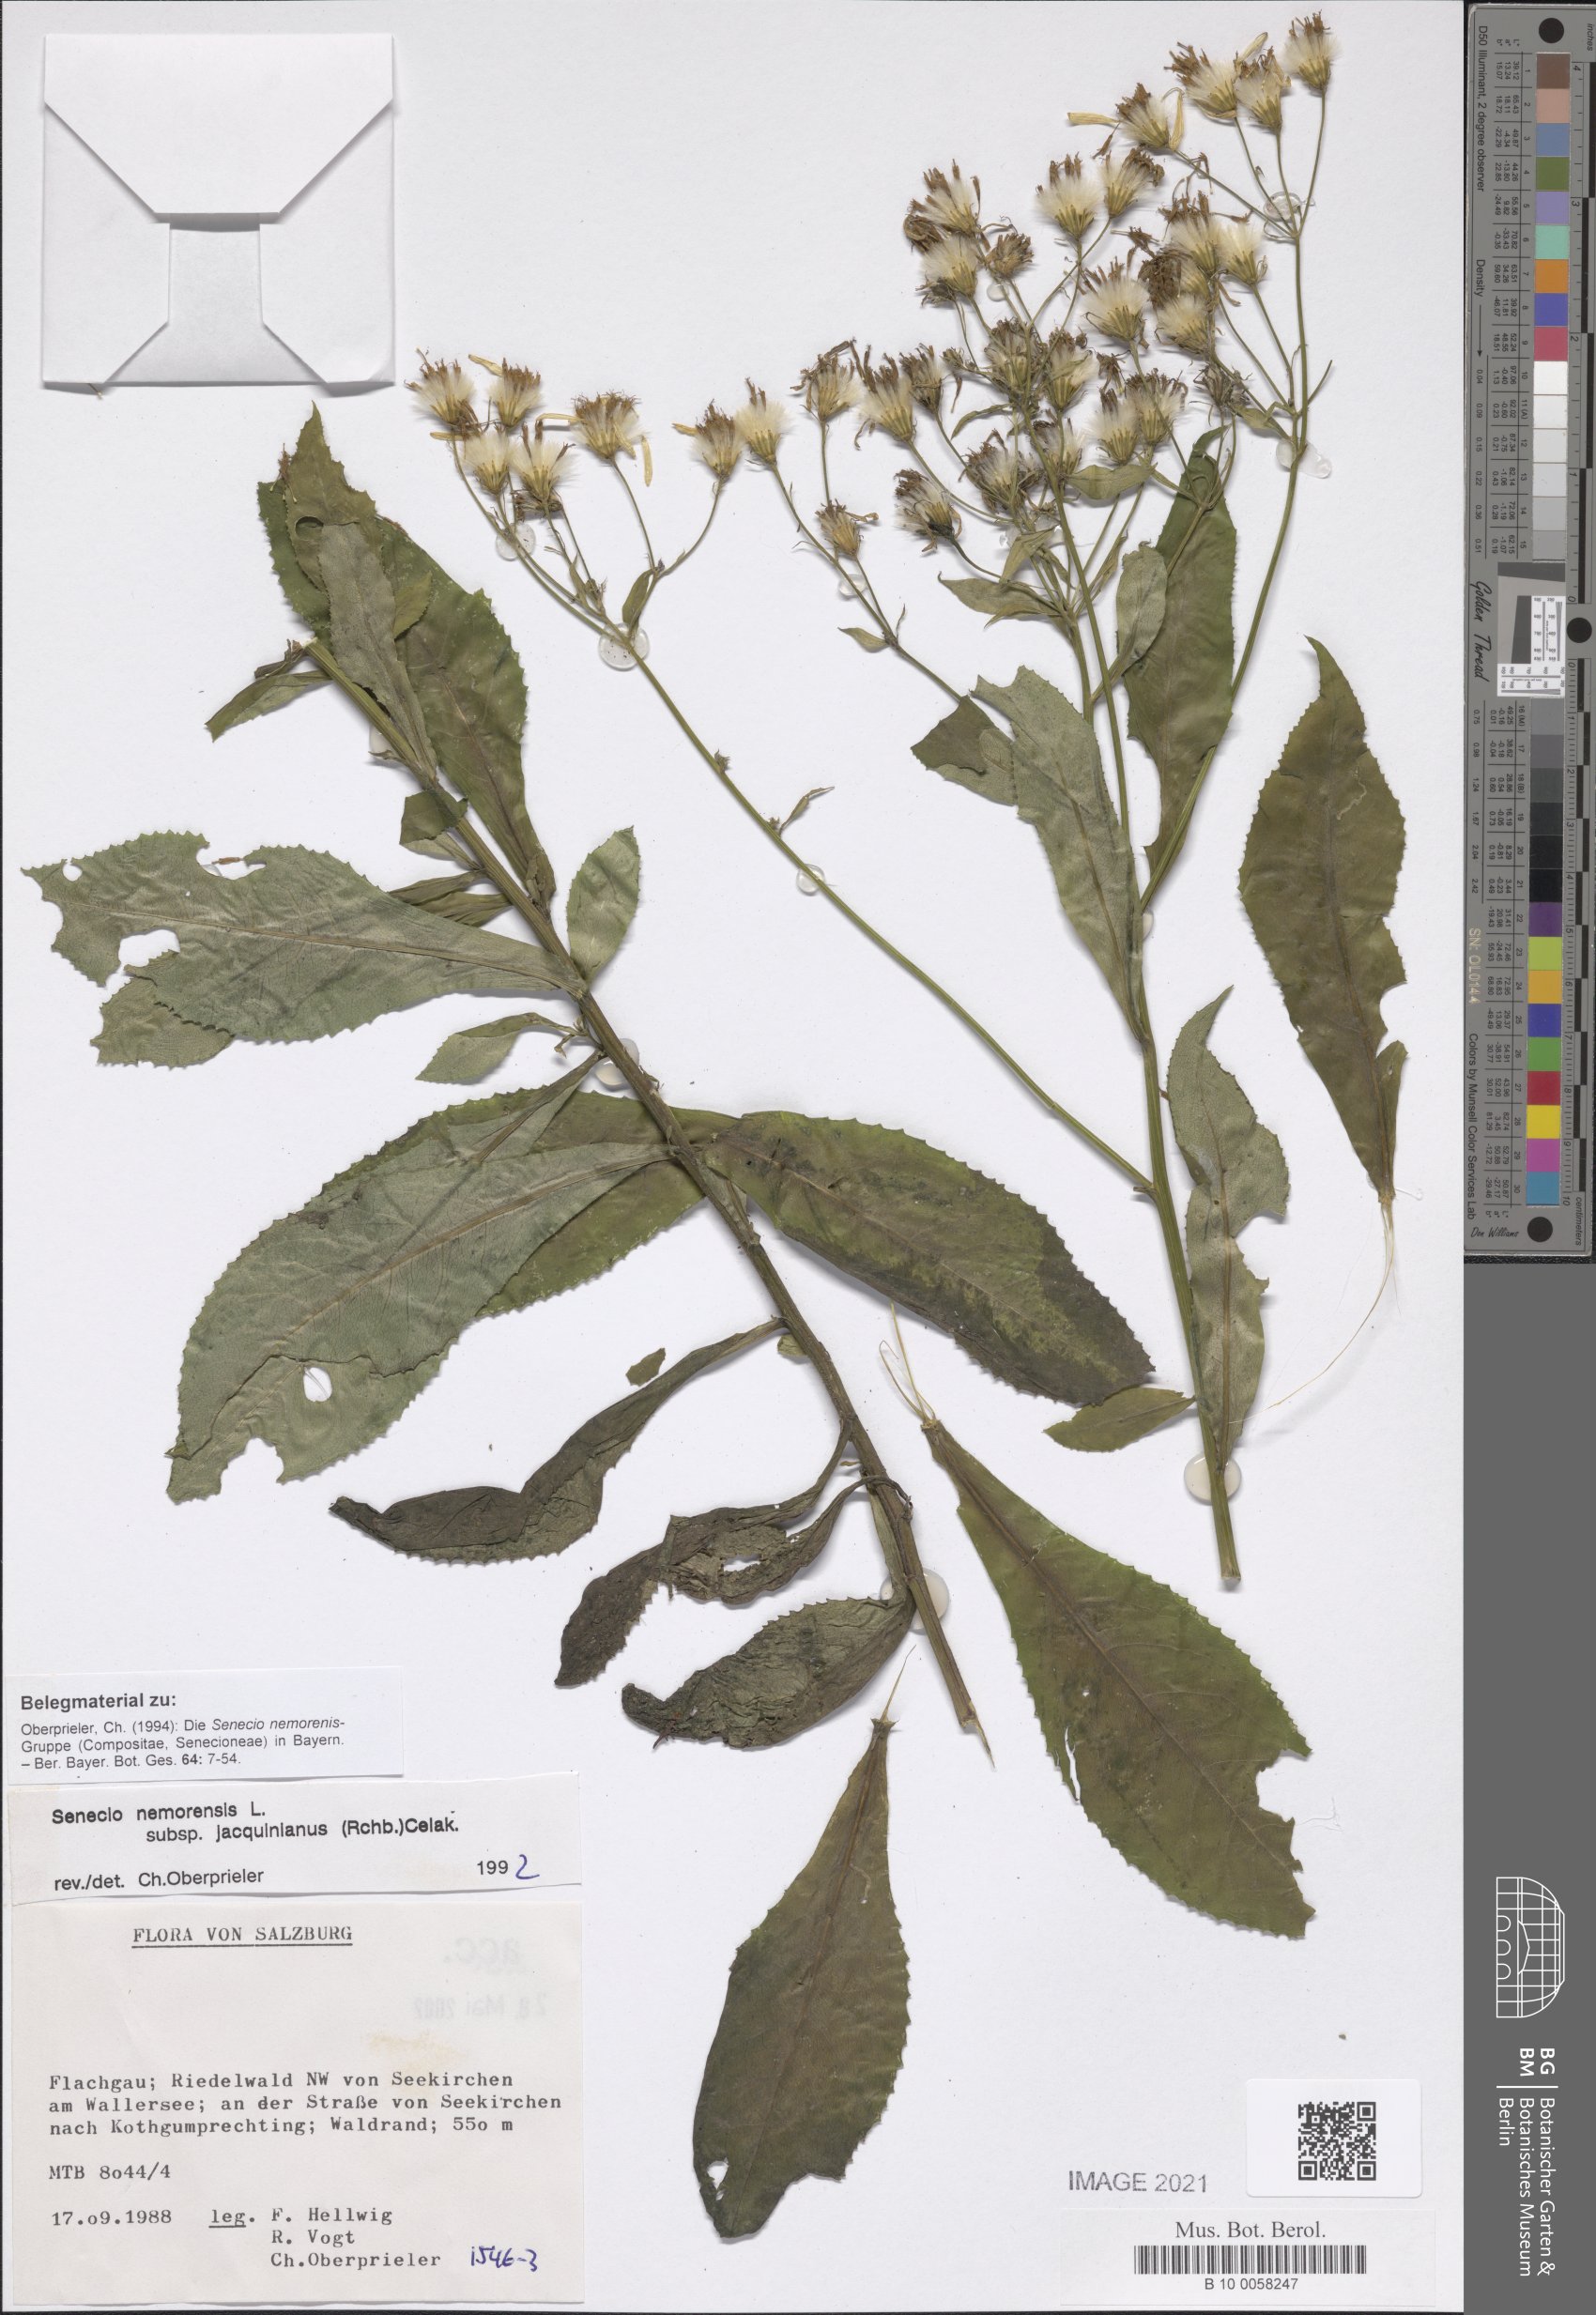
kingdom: Plantae
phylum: Tracheophyta
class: Magnoliopsida
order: Asterales
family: Asteraceae
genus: Senecio
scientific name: Senecio germanicus
